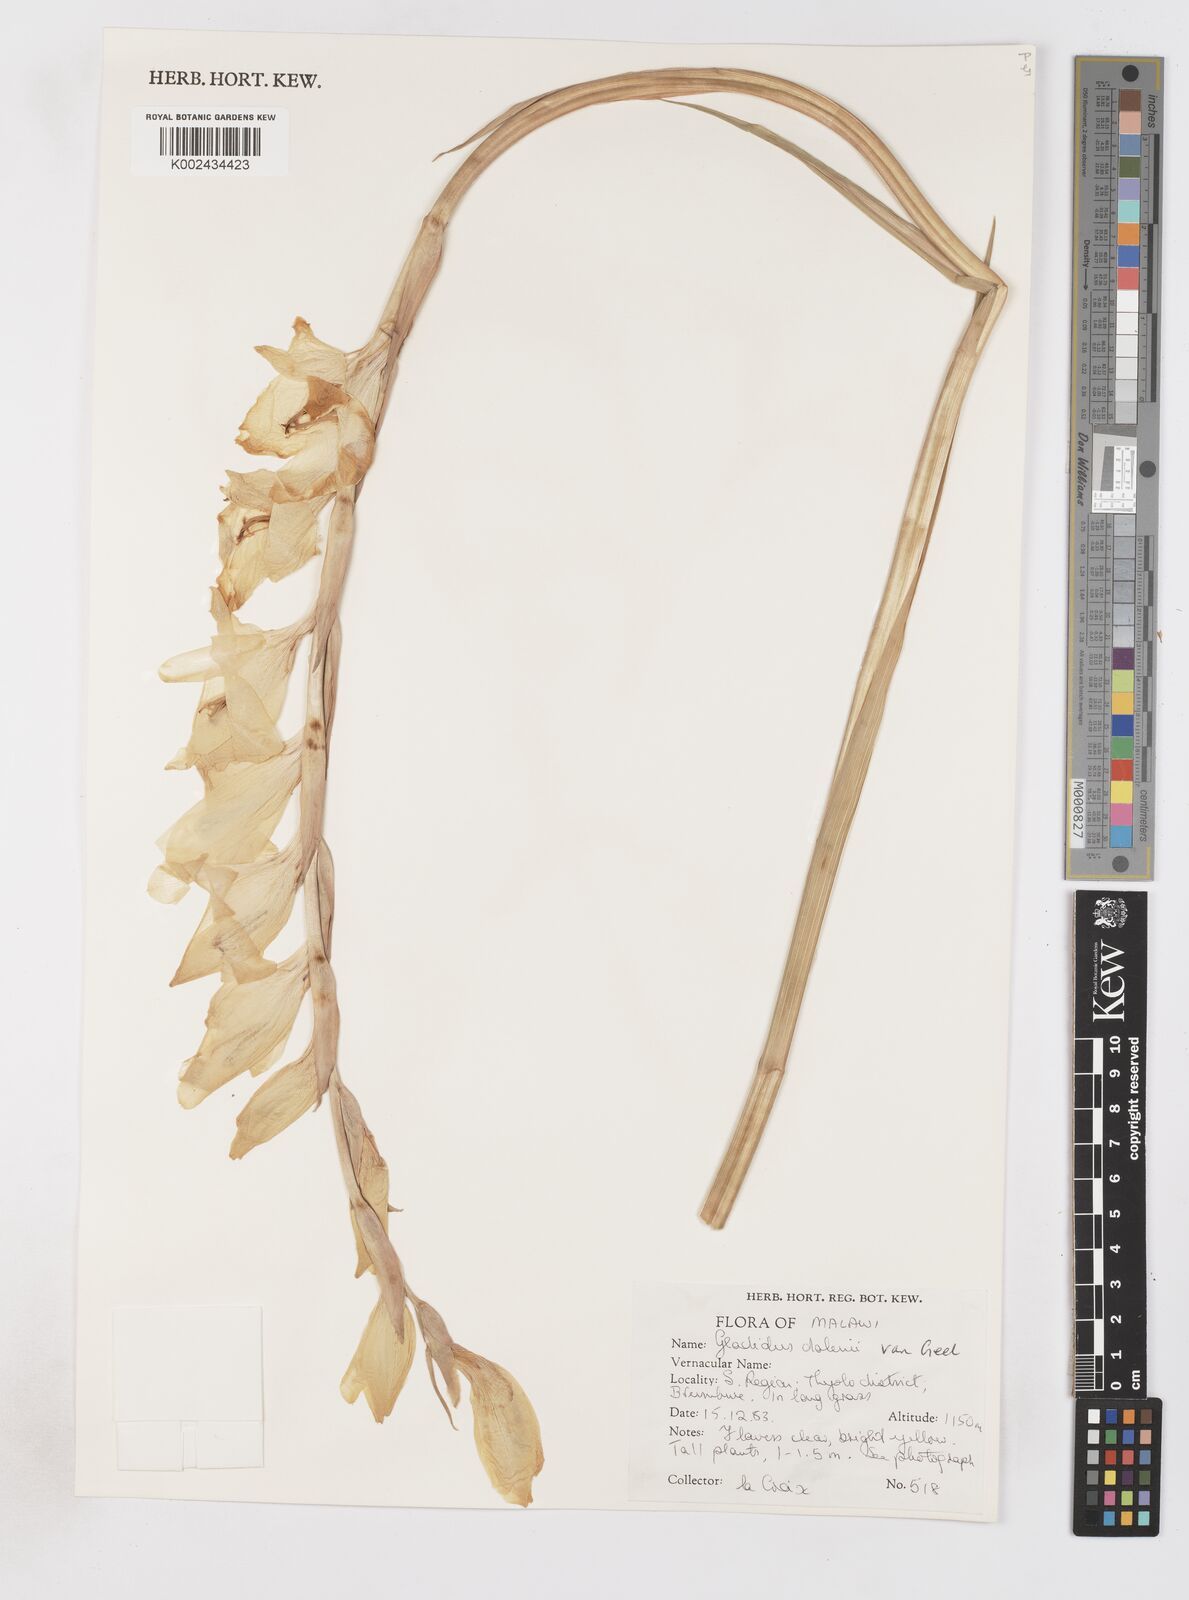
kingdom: Plantae
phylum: Tracheophyta
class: Liliopsida
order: Asparagales
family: Iridaceae
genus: Gladiolus
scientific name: Gladiolus dalenii
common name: Cornflag
